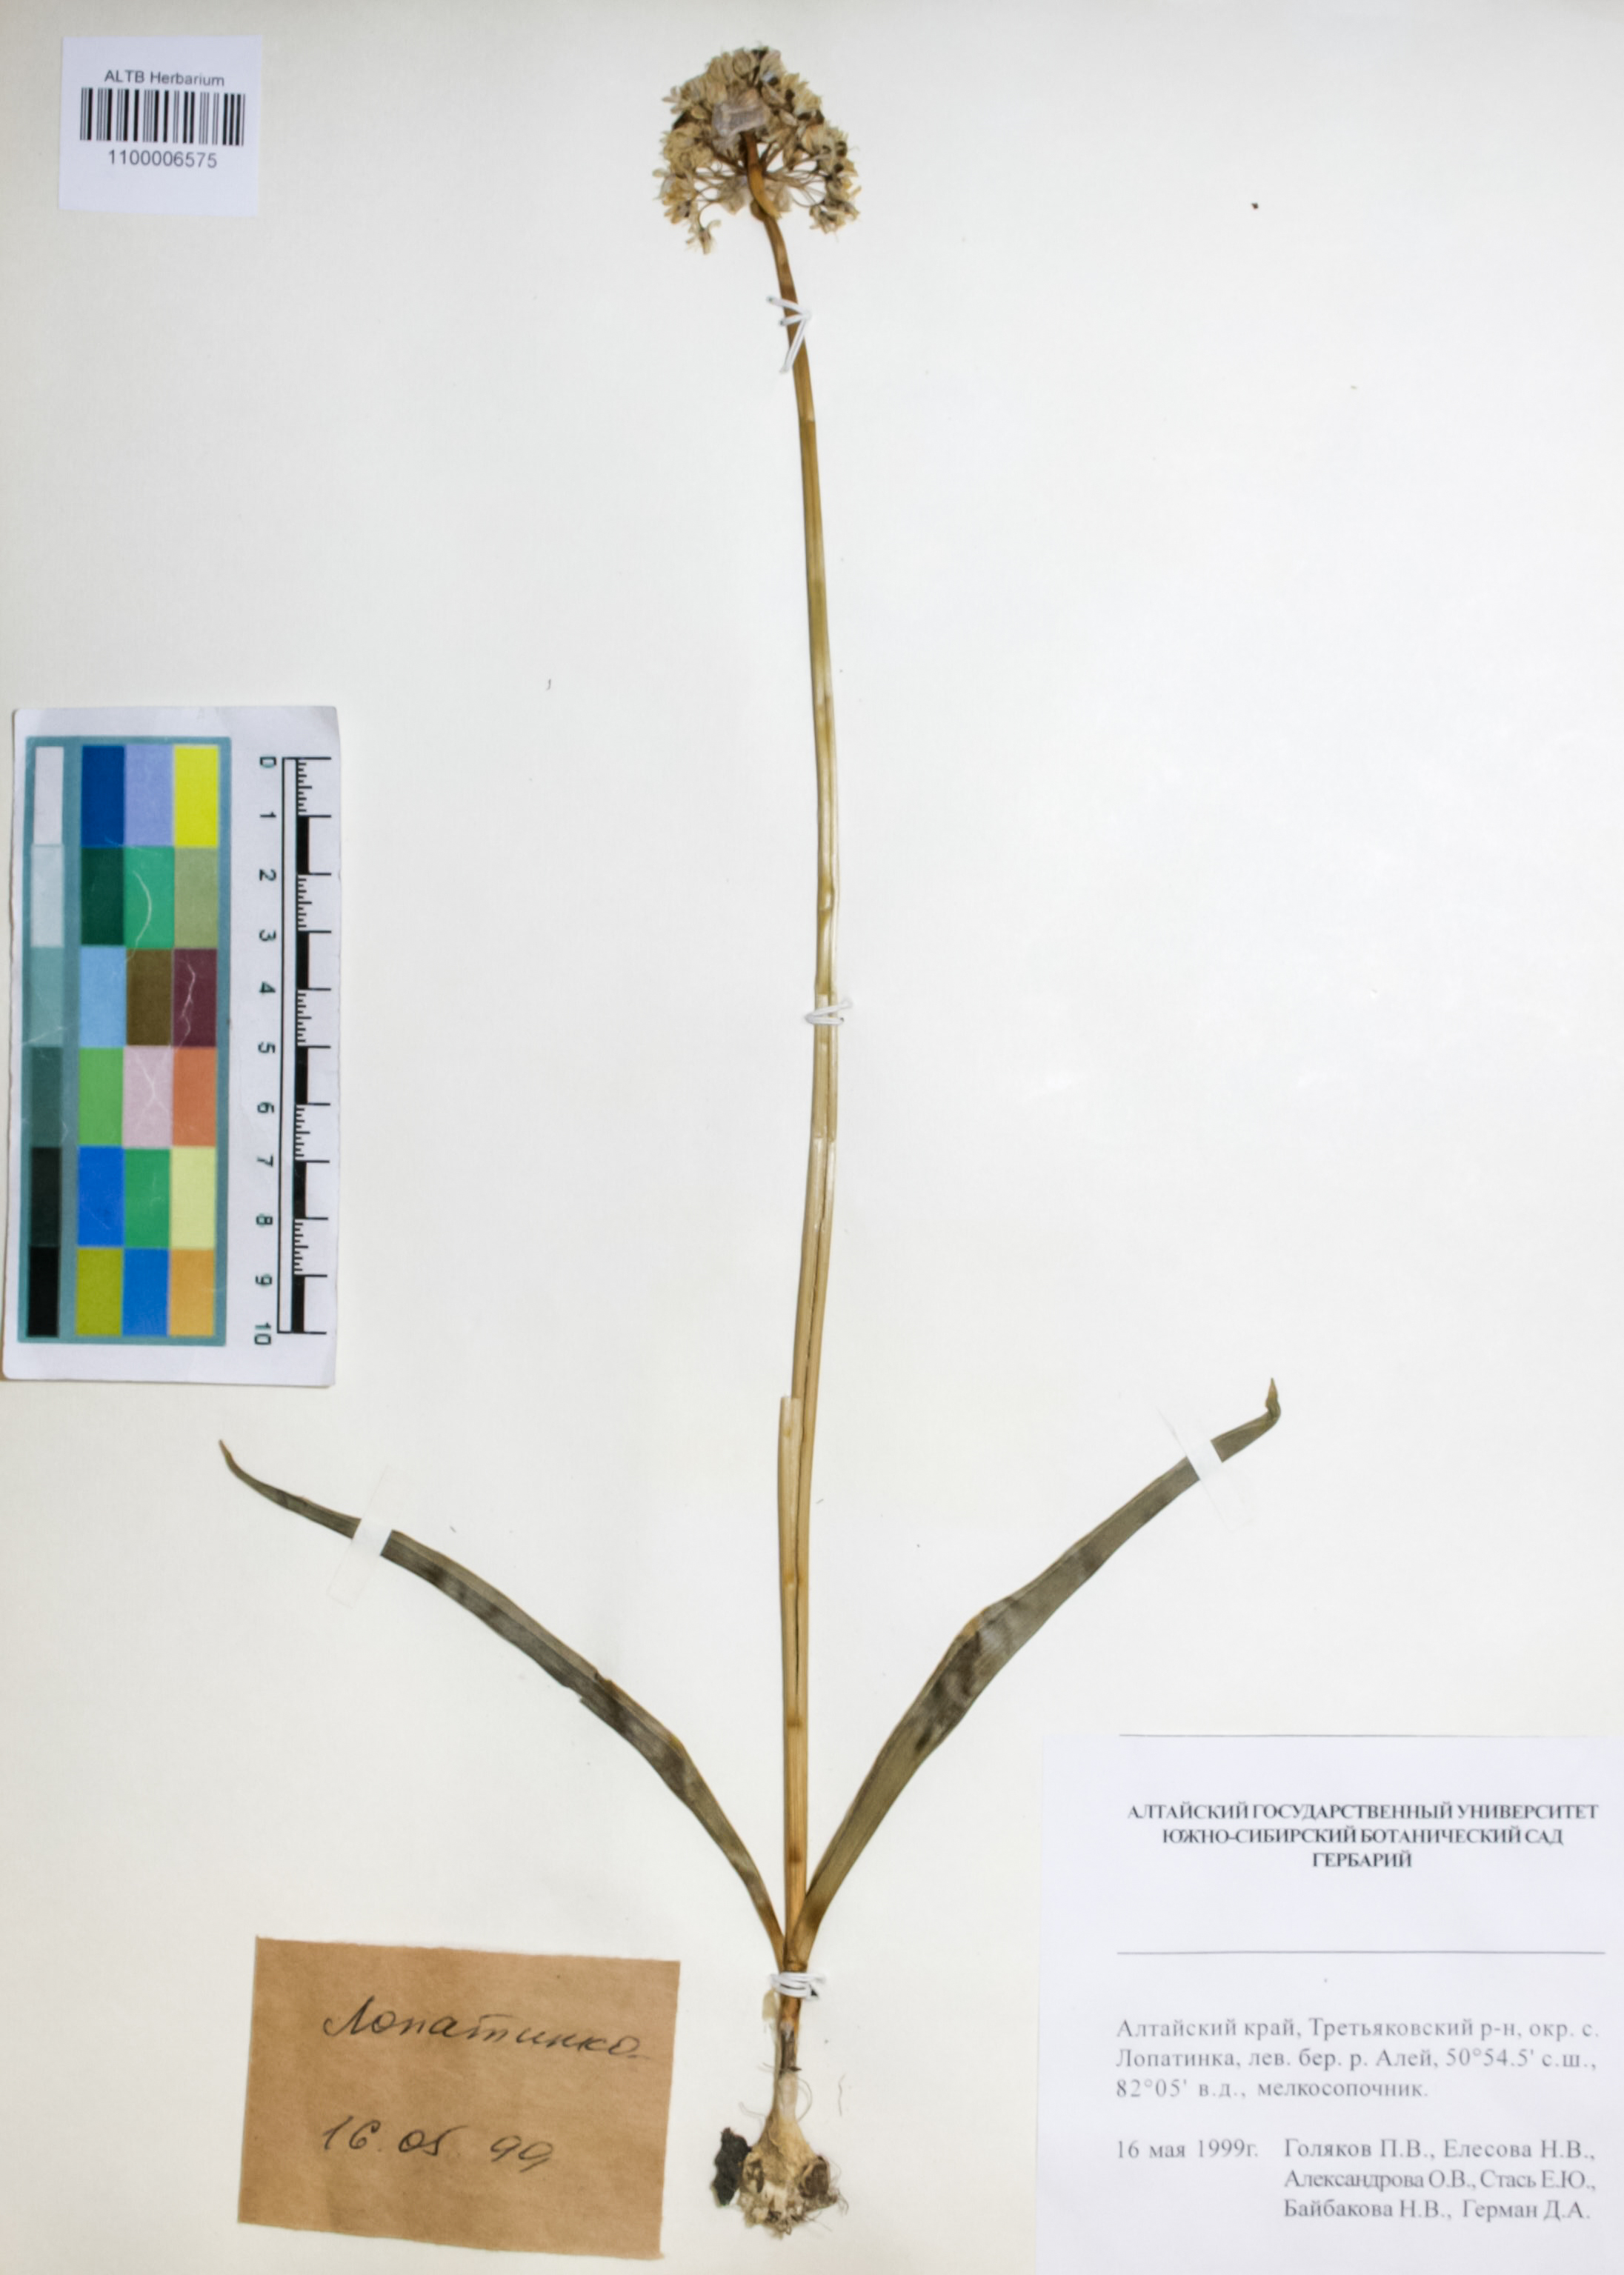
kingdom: Plantae
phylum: Tracheophyta
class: Liliopsida
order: Asparagales
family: Amaryllidaceae
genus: Allium
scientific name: Allium tulipifolium
